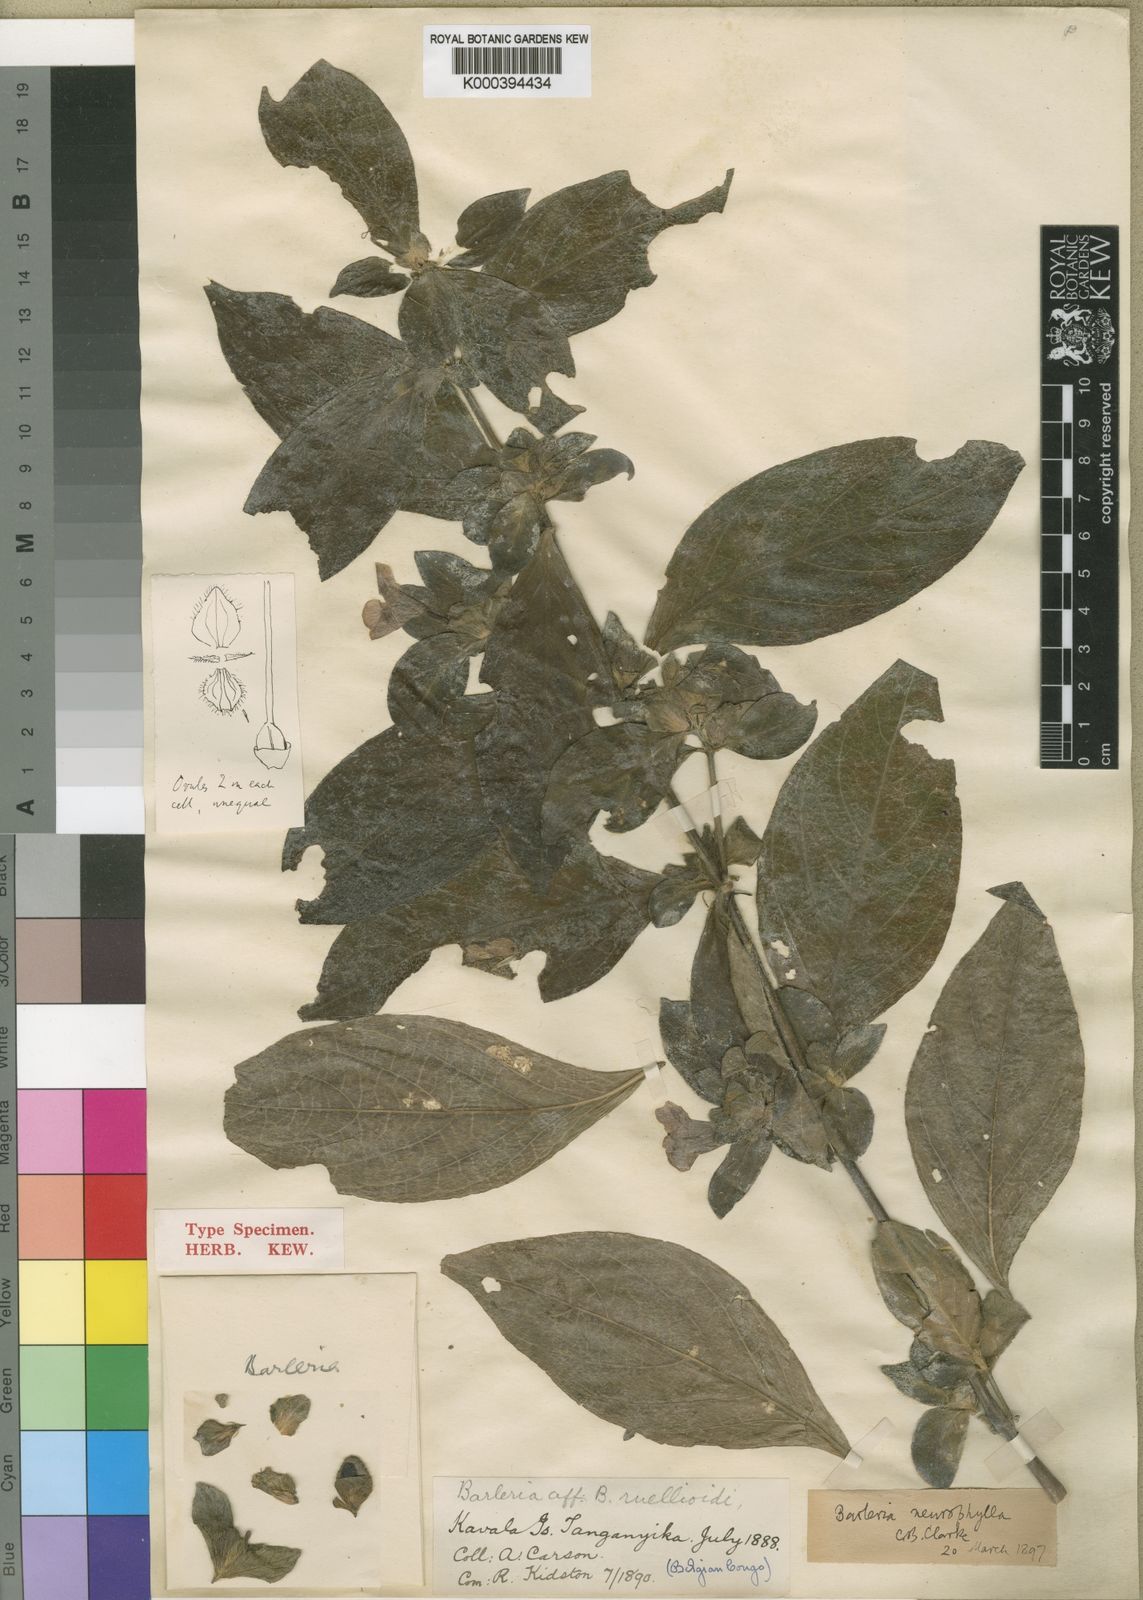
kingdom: Plantae
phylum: Tracheophyta
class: Magnoliopsida
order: Lamiales
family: Acanthaceae
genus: Barleria
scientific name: Barleria neurophylla
